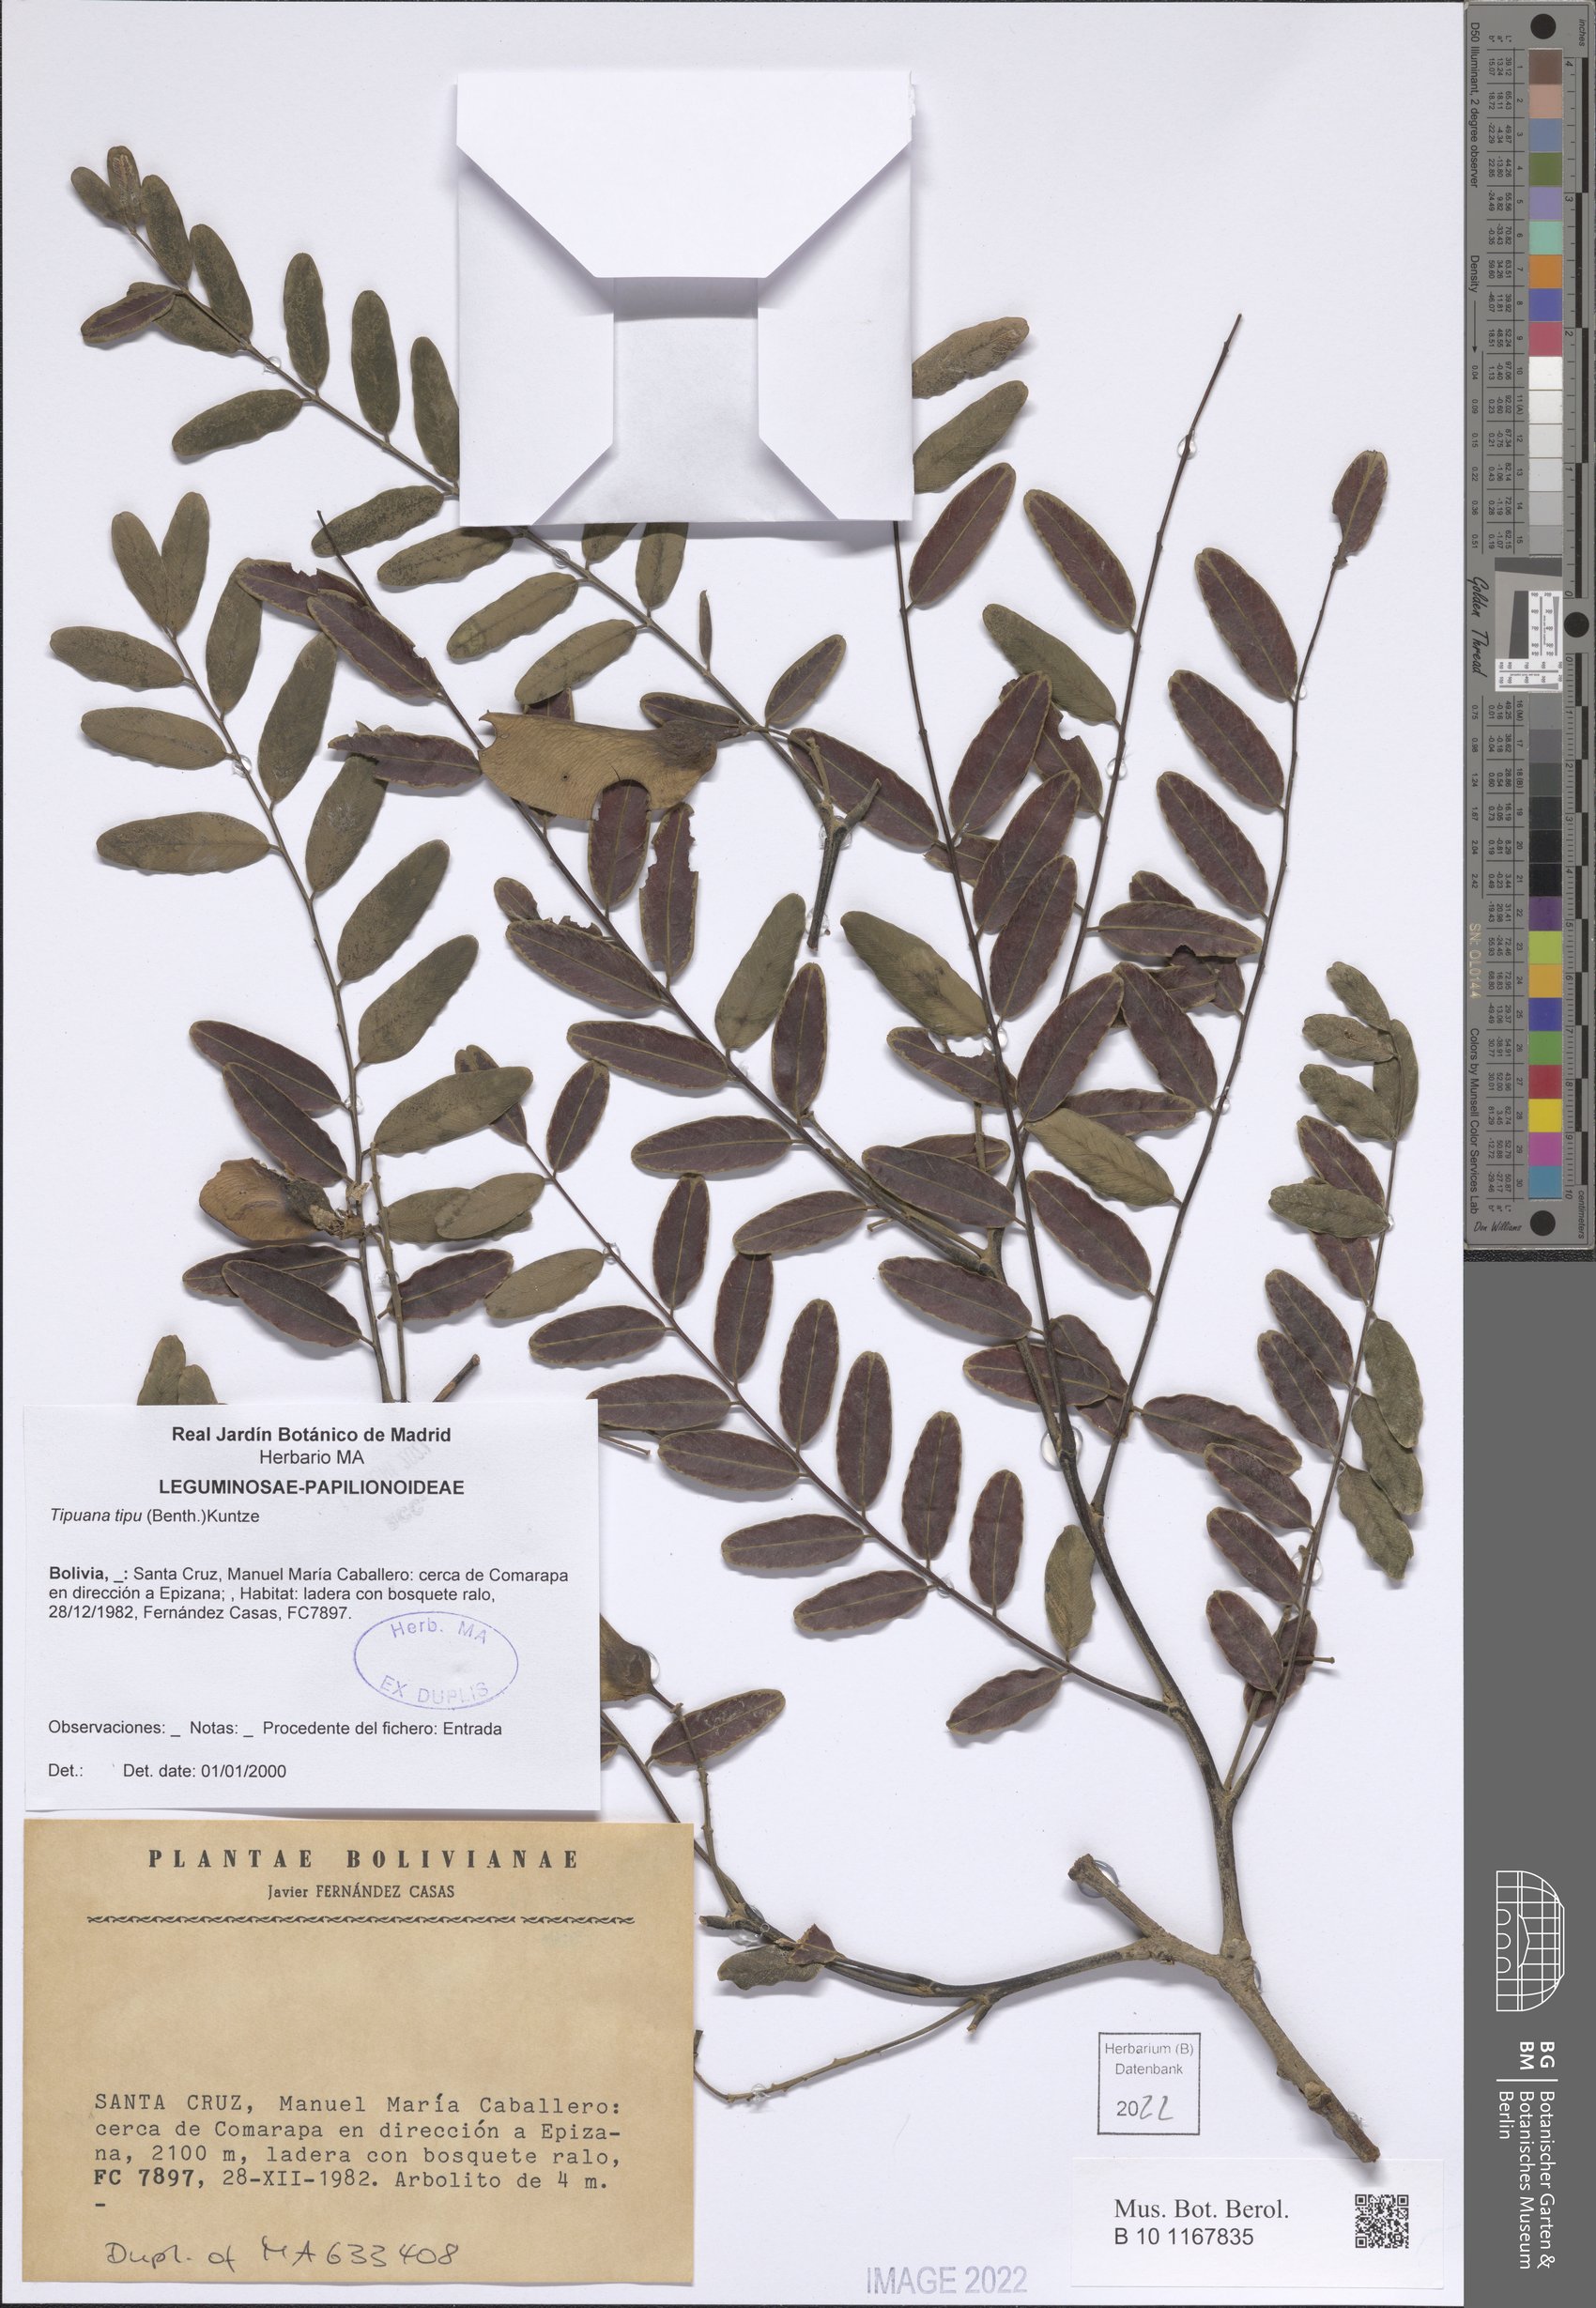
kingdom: Plantae
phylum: Tracheophyta
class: Magnoliopsida
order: Fabales
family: Fabaceae
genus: Tipuana
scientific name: Tipuana tipu
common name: Tiputree
